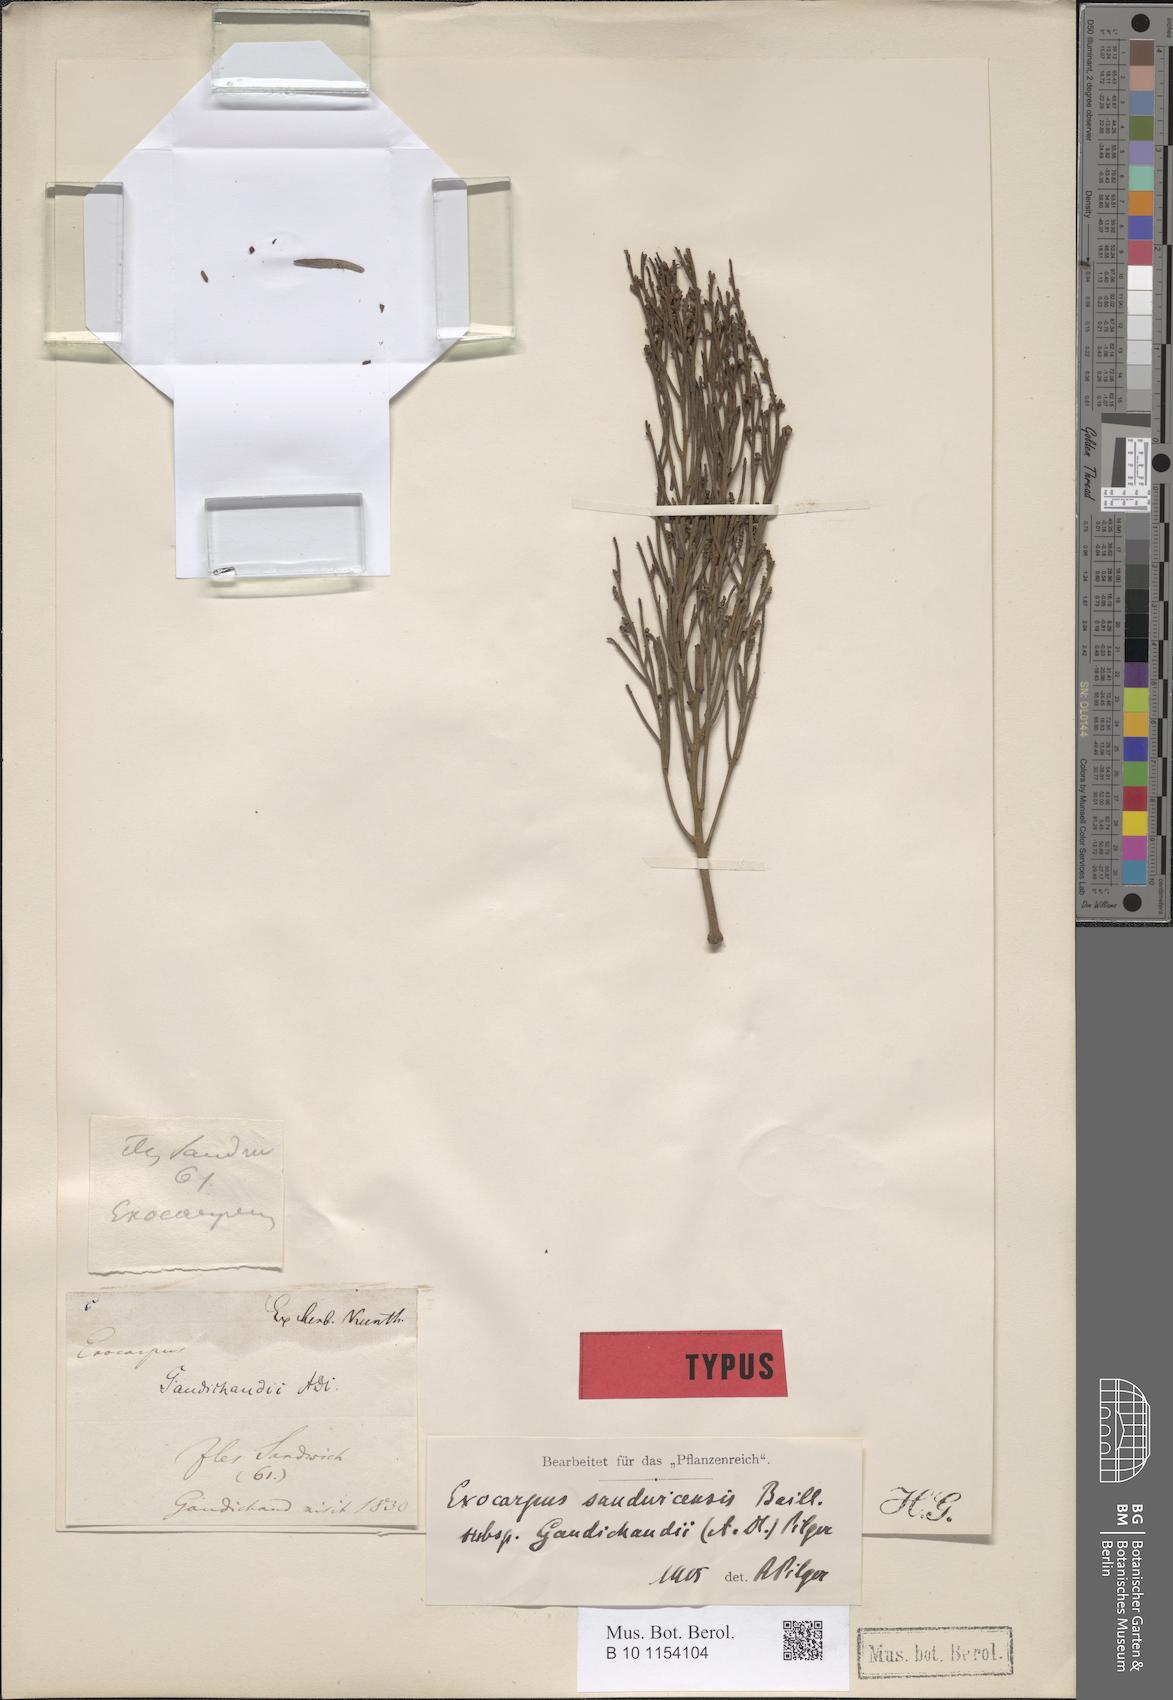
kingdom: Plantae
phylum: Tracheophyta
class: Magnoliopsida
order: Santalales
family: Santalaceae
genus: Exocarpos
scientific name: Exocarpos gaudichaudii
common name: Gaudichaud's exocarpus
